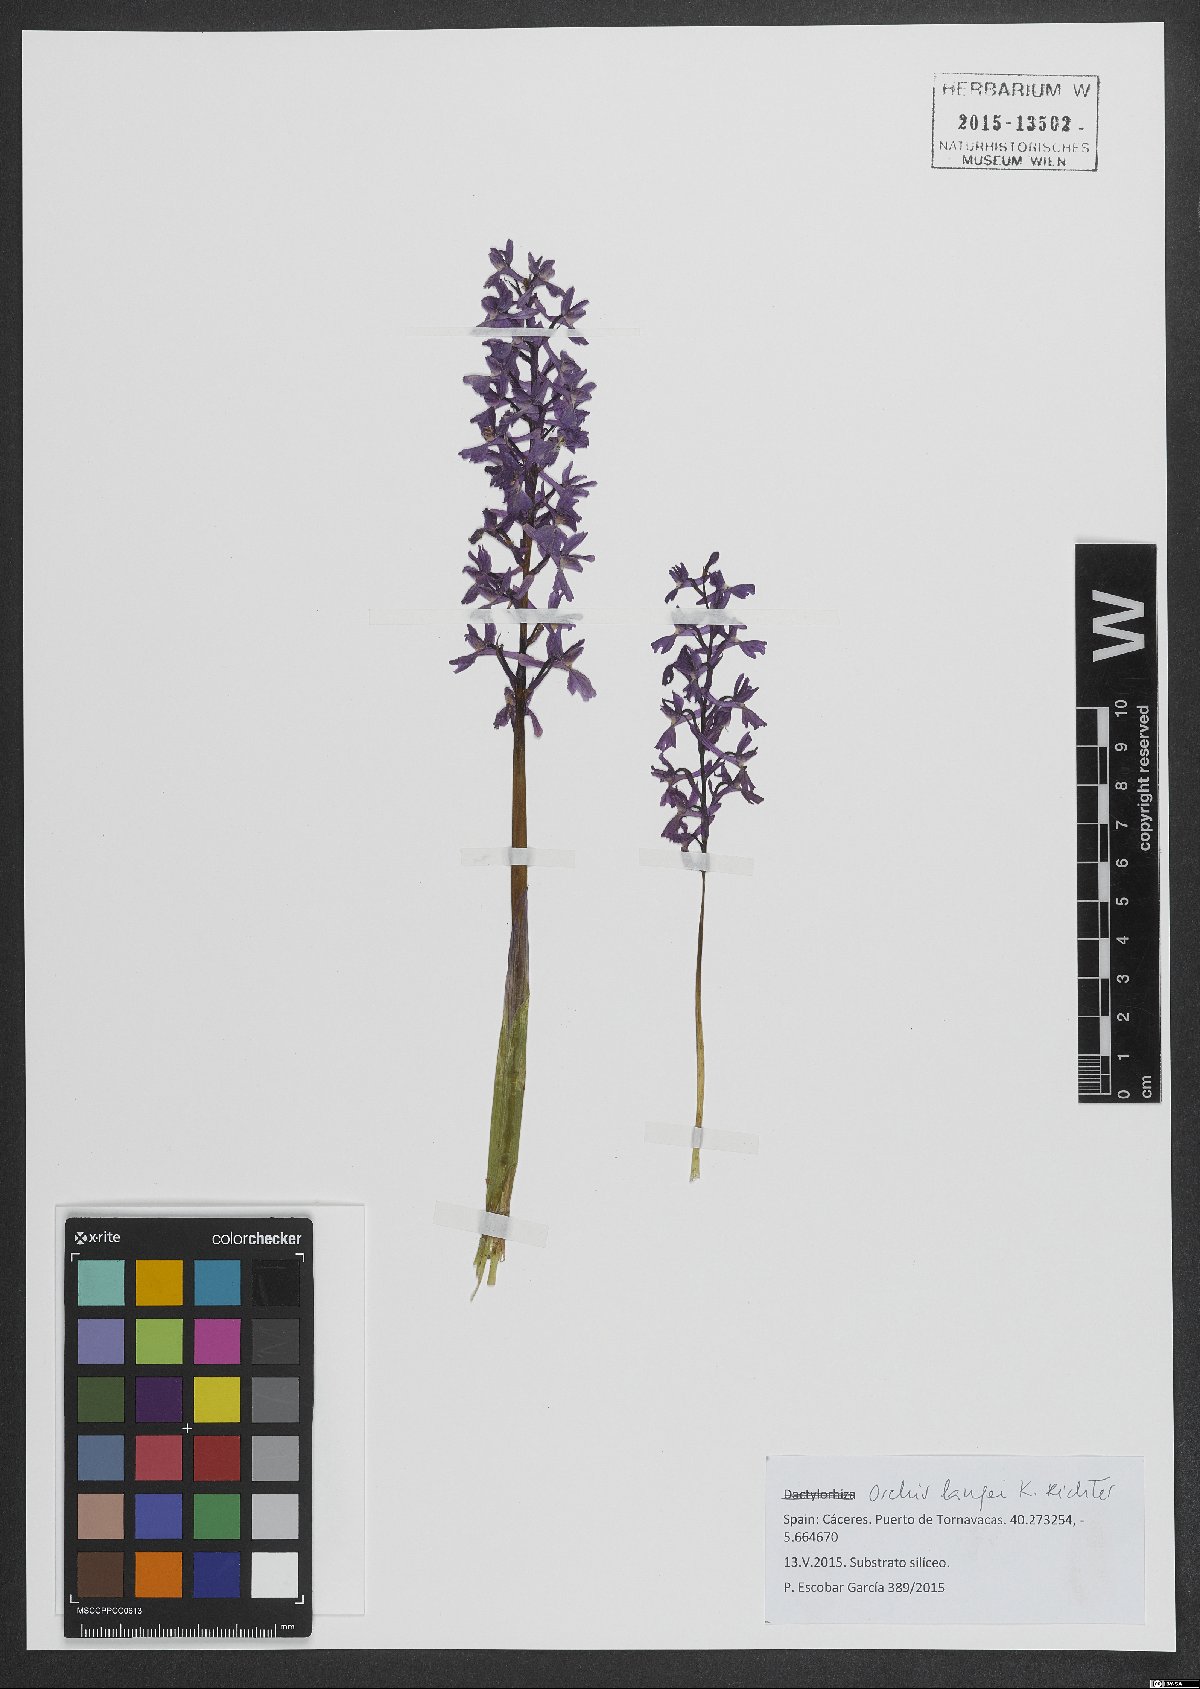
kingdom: Plantae
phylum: Tracheophyta
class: Liliopsida
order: Asparagales
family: Orchidaceae
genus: Orchis
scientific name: Orchis mascula
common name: Early-purple orchid
